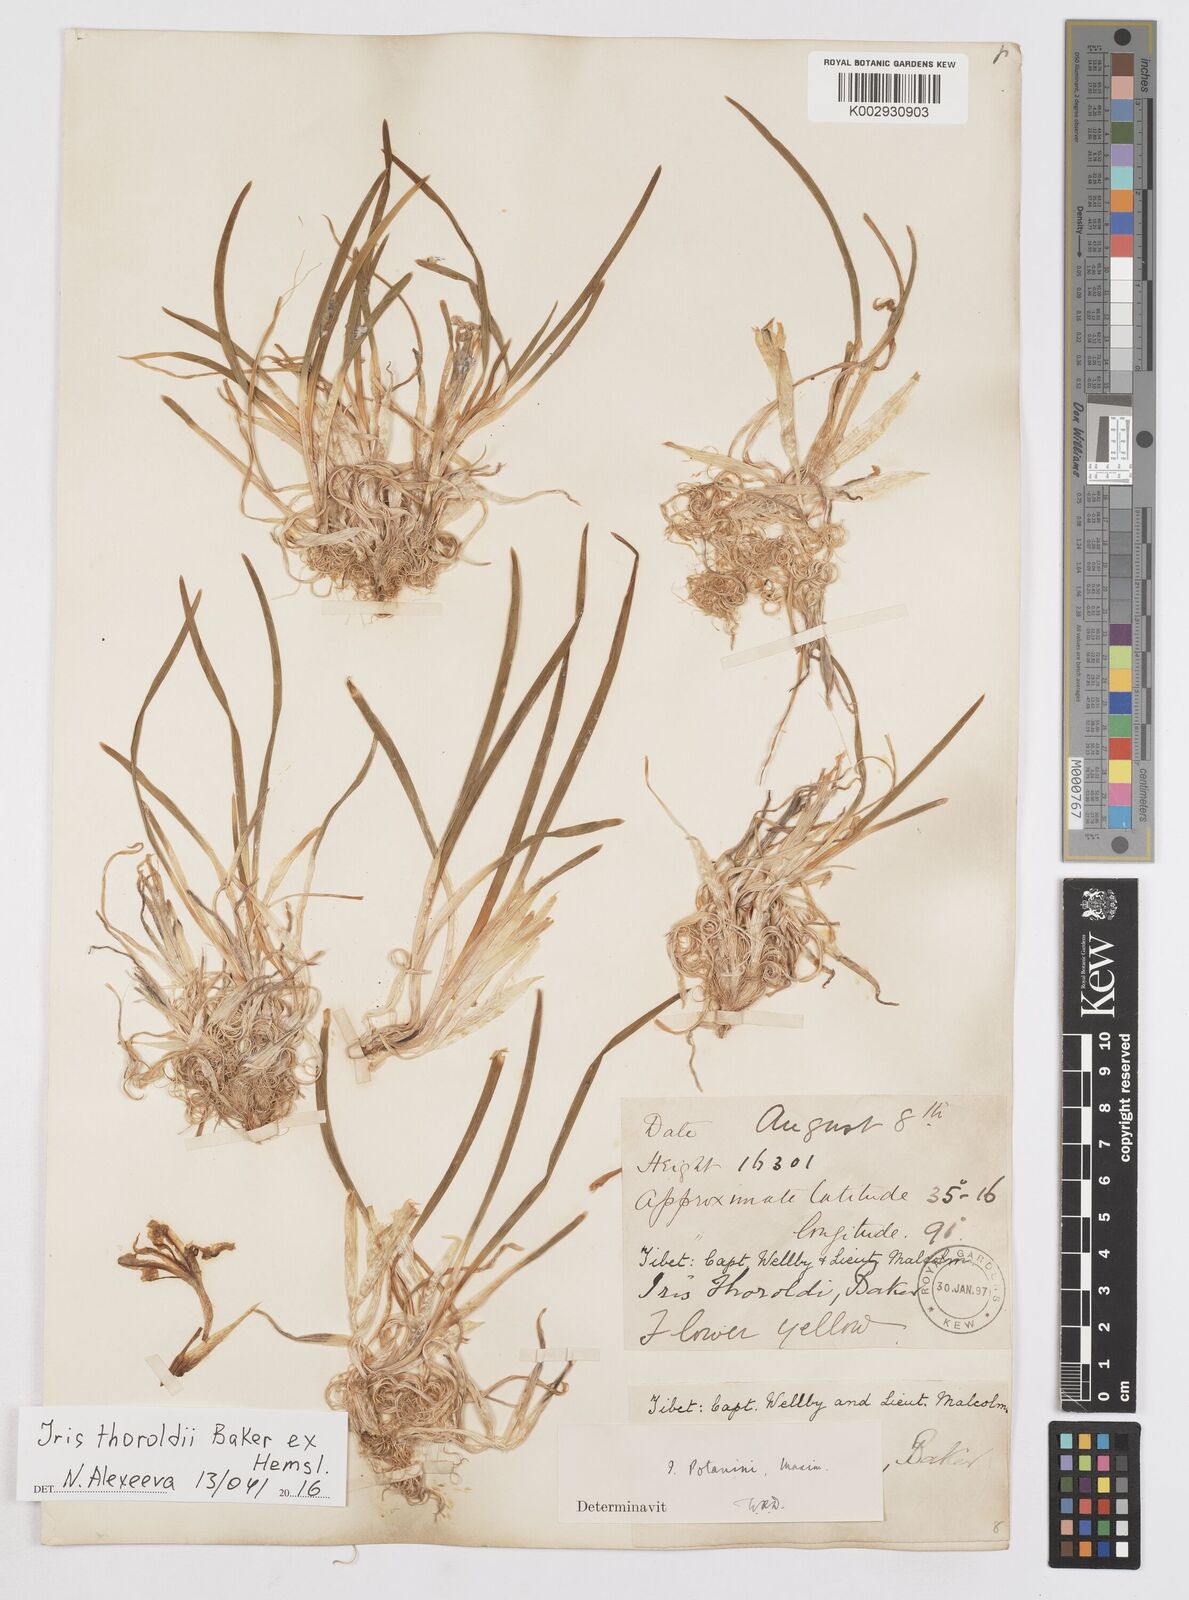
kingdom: Plantae
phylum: Tracheophyta
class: Liliopsida
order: Asparagales
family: Iridaceae
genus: Iris
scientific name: Iris potaninii
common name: Curl-sheath iris
